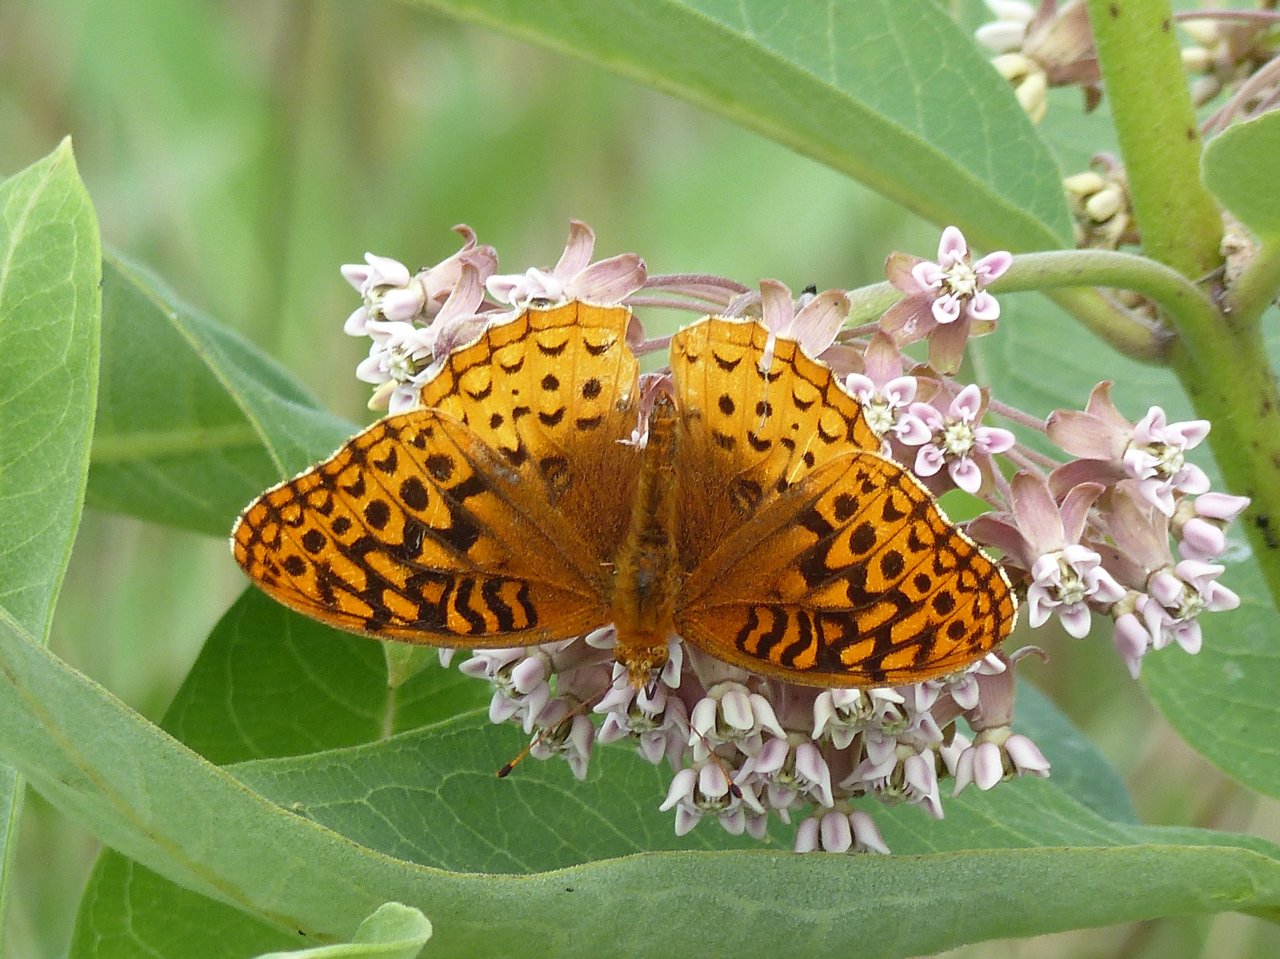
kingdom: Animalia
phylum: Arthropoda
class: Insecta
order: Lepidoptera
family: Nymphalidae
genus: Speyeria
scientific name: Speyeria cybele
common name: Great Spangled Fritillary
